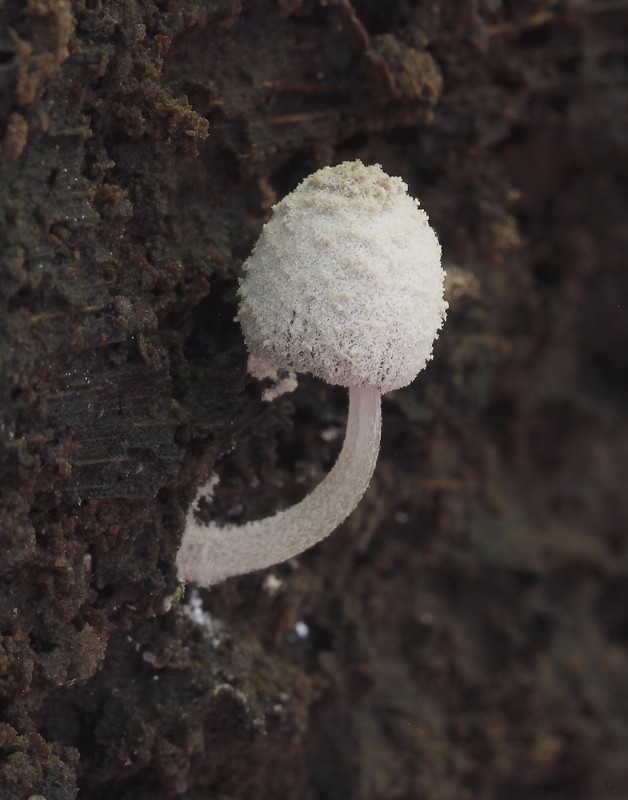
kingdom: Fungi
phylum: Basidiomycota
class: Agaricomycetes
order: Agaricales
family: Psathyrellaceae
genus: Coprinopsis
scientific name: Coprinopsis laanii
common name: stub-blækhat
